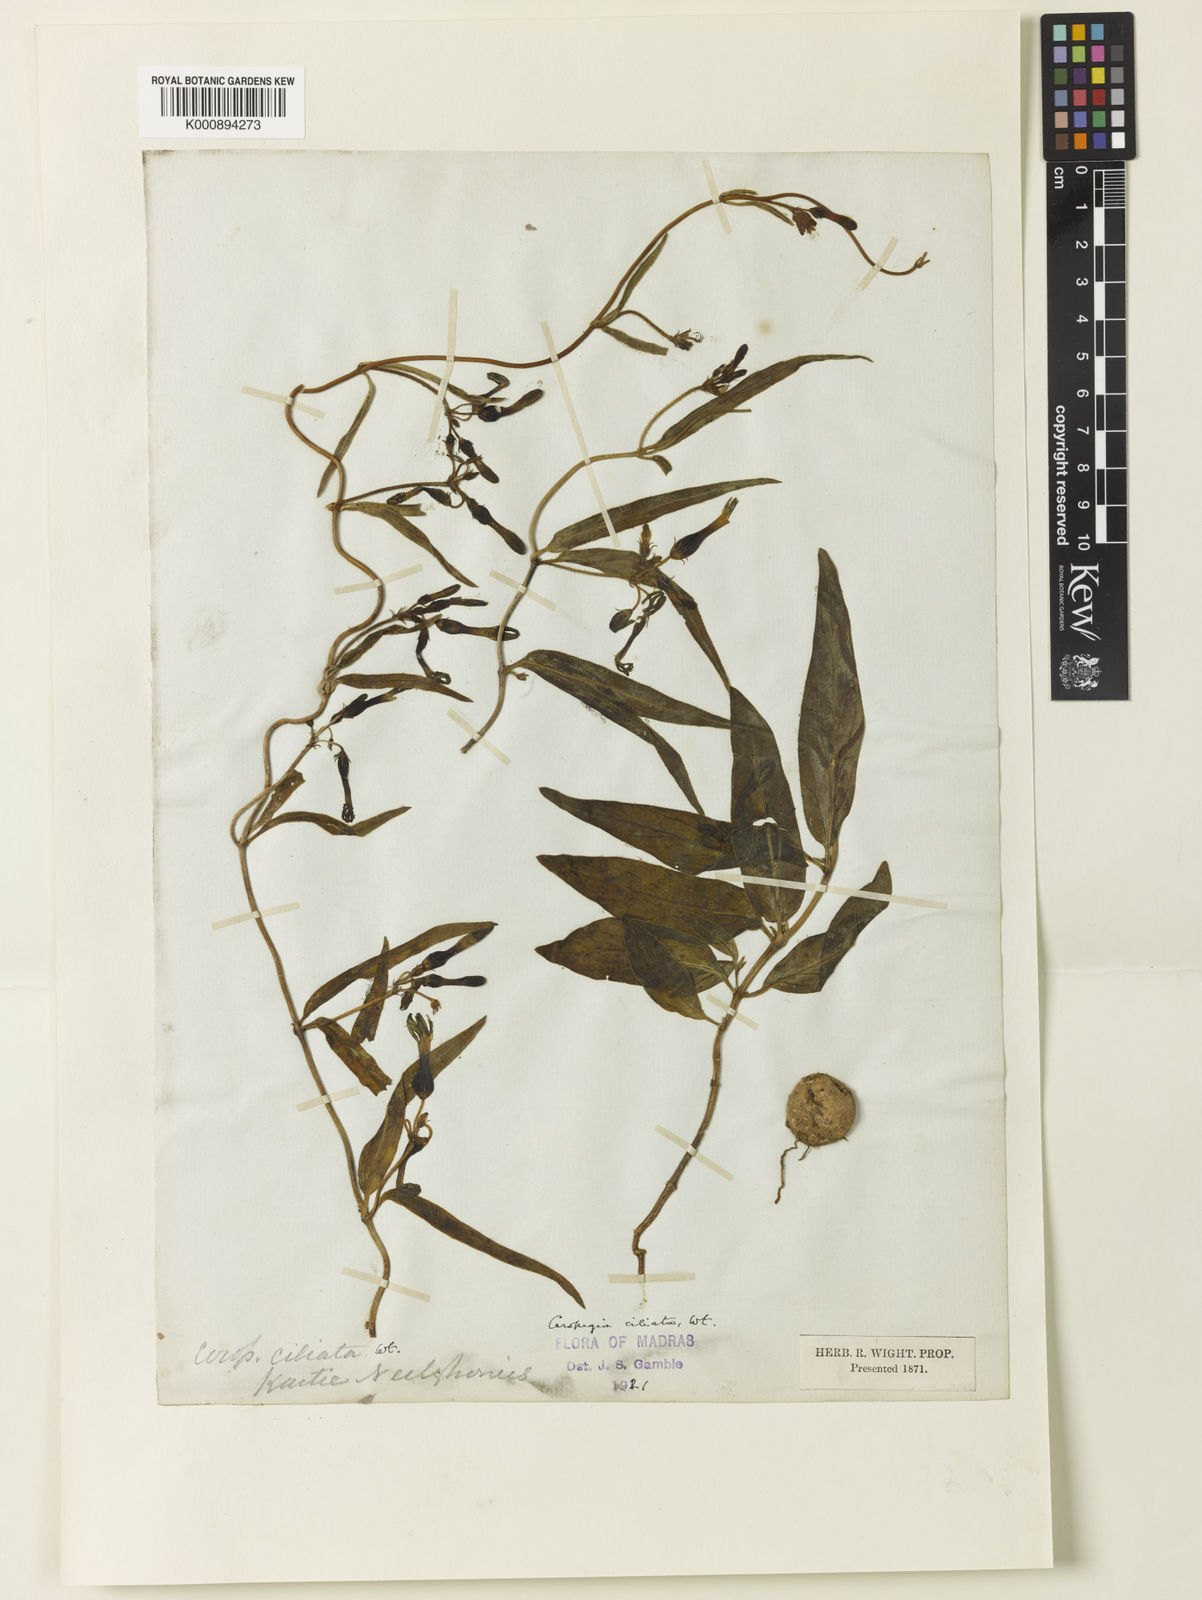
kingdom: Plantae
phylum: Tracheophyta
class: Magnoliopsida
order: Gentianales
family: Apocynaceae
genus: Ceropegia
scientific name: Ceropegia ciliata
